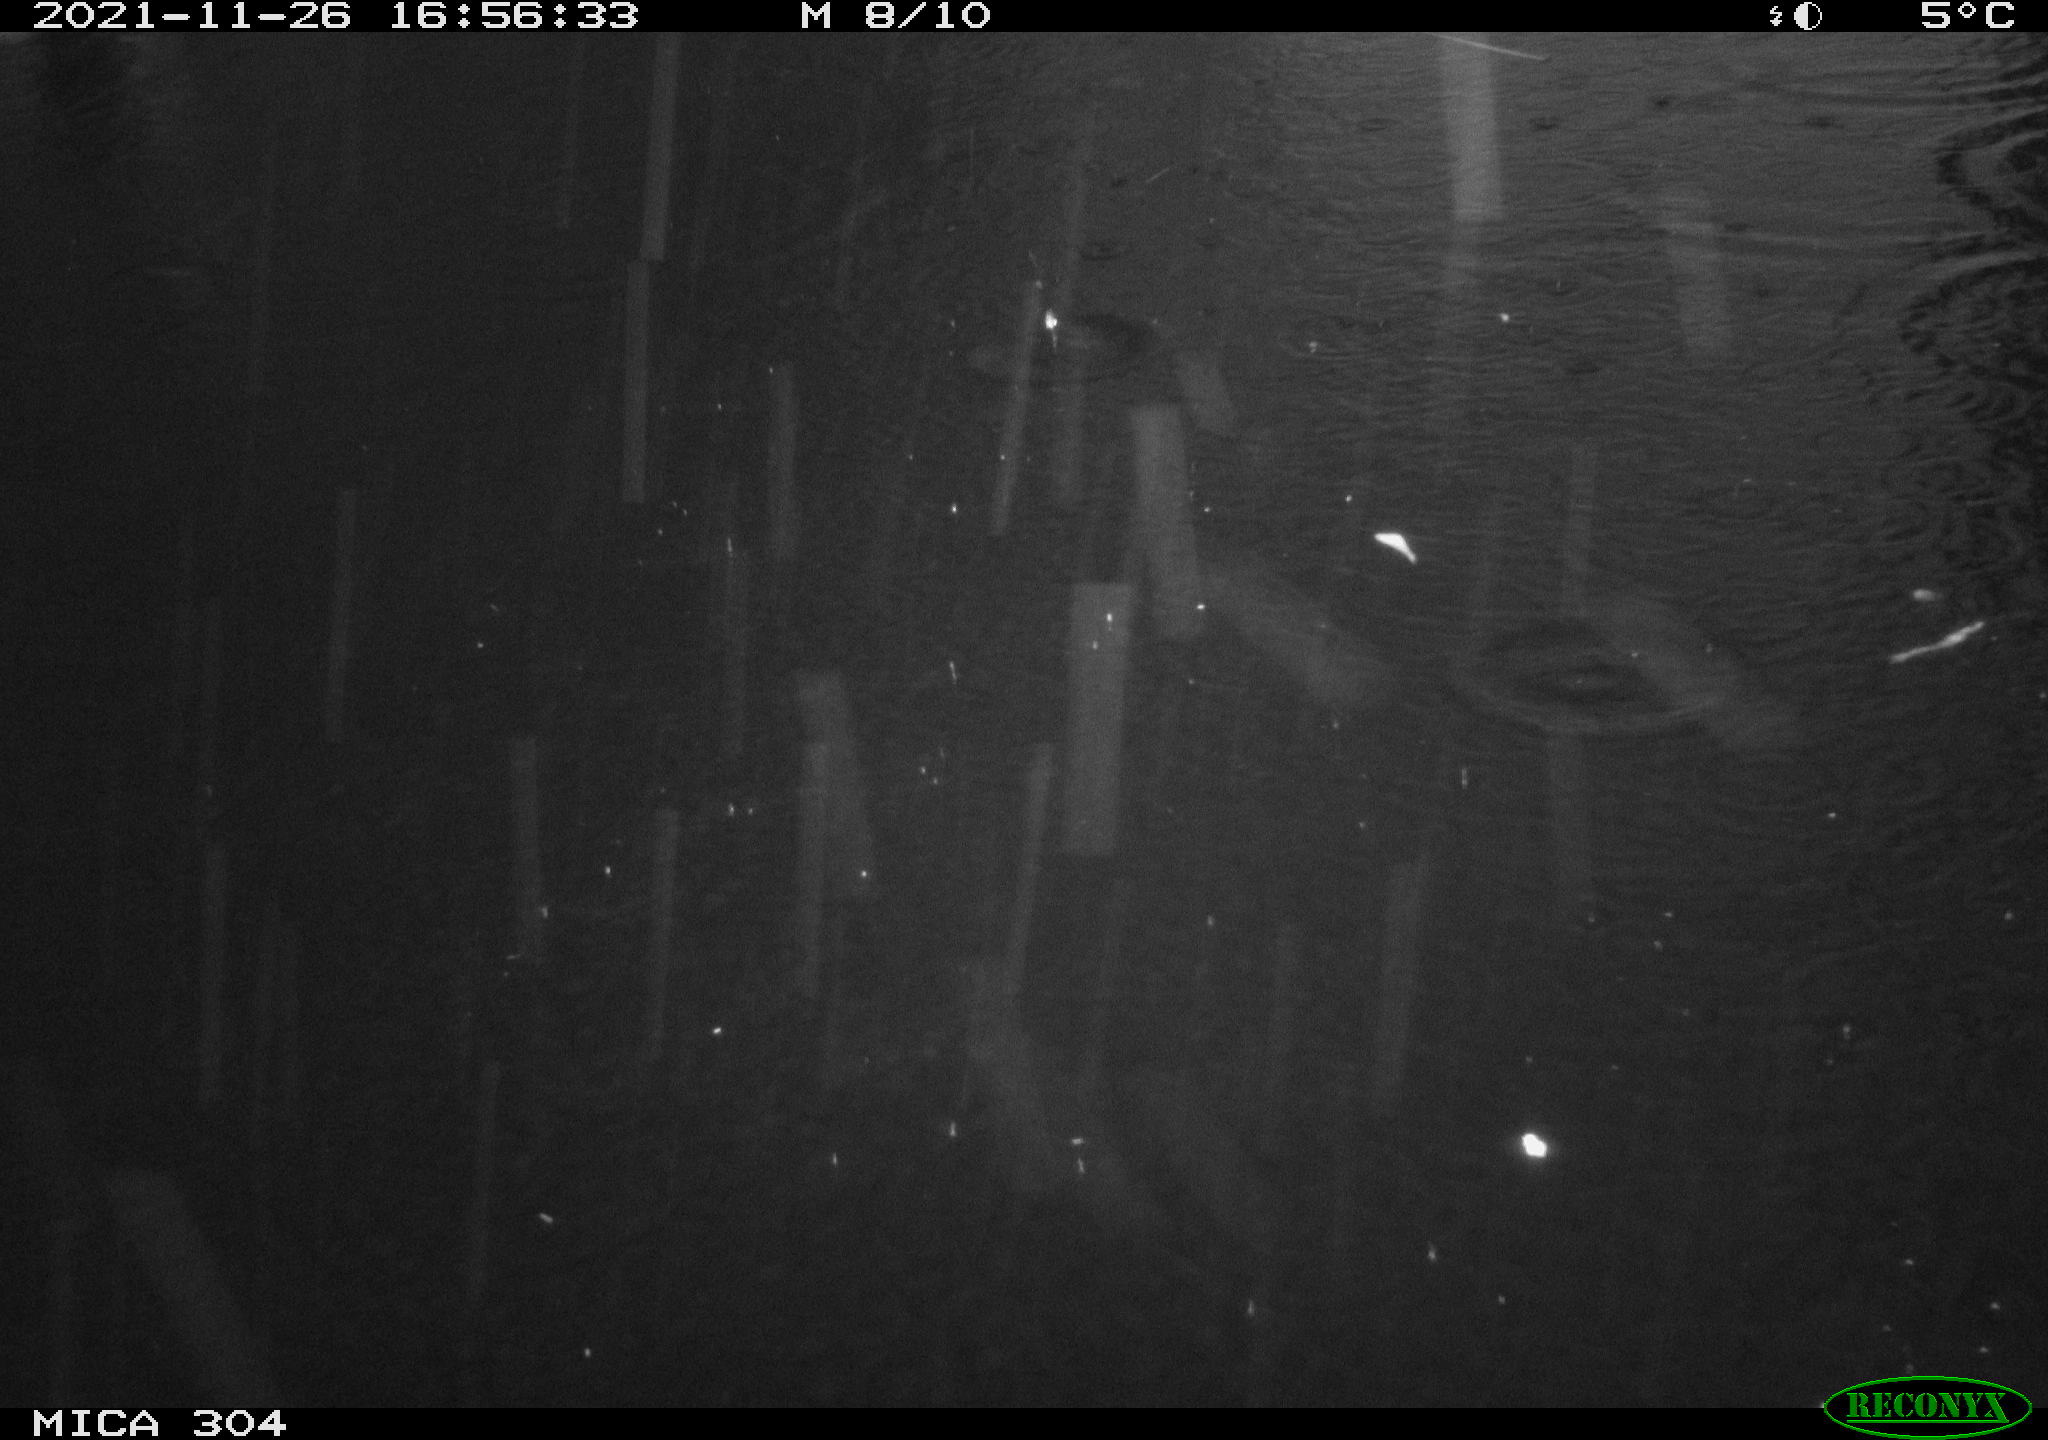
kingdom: Animalia
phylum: Chordata
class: Aves
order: Gruiformes
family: Rallidae
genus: Fulica
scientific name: Fulica atra
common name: Eurasian coot
